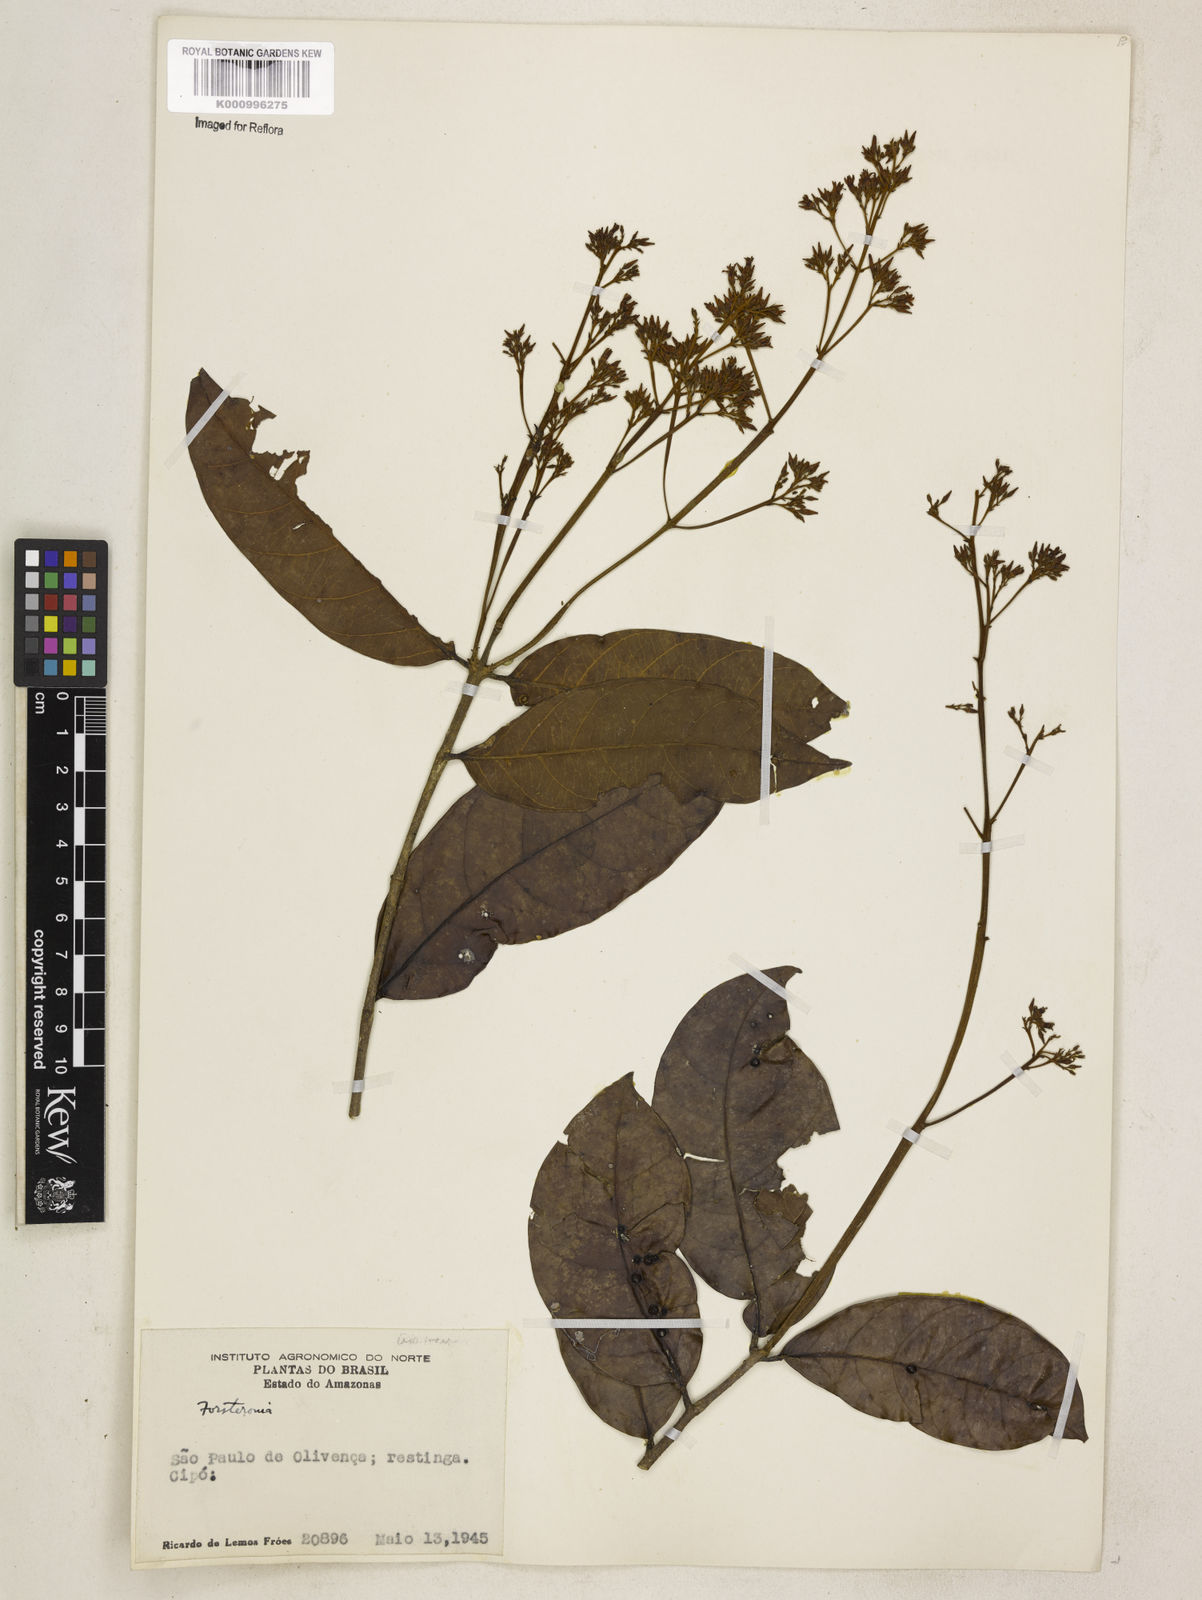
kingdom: Plantae
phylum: Tracheophyta
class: Magnoliopsida
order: Gentianales
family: Apocynaceae
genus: Forsteronia
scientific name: Forsteronia
